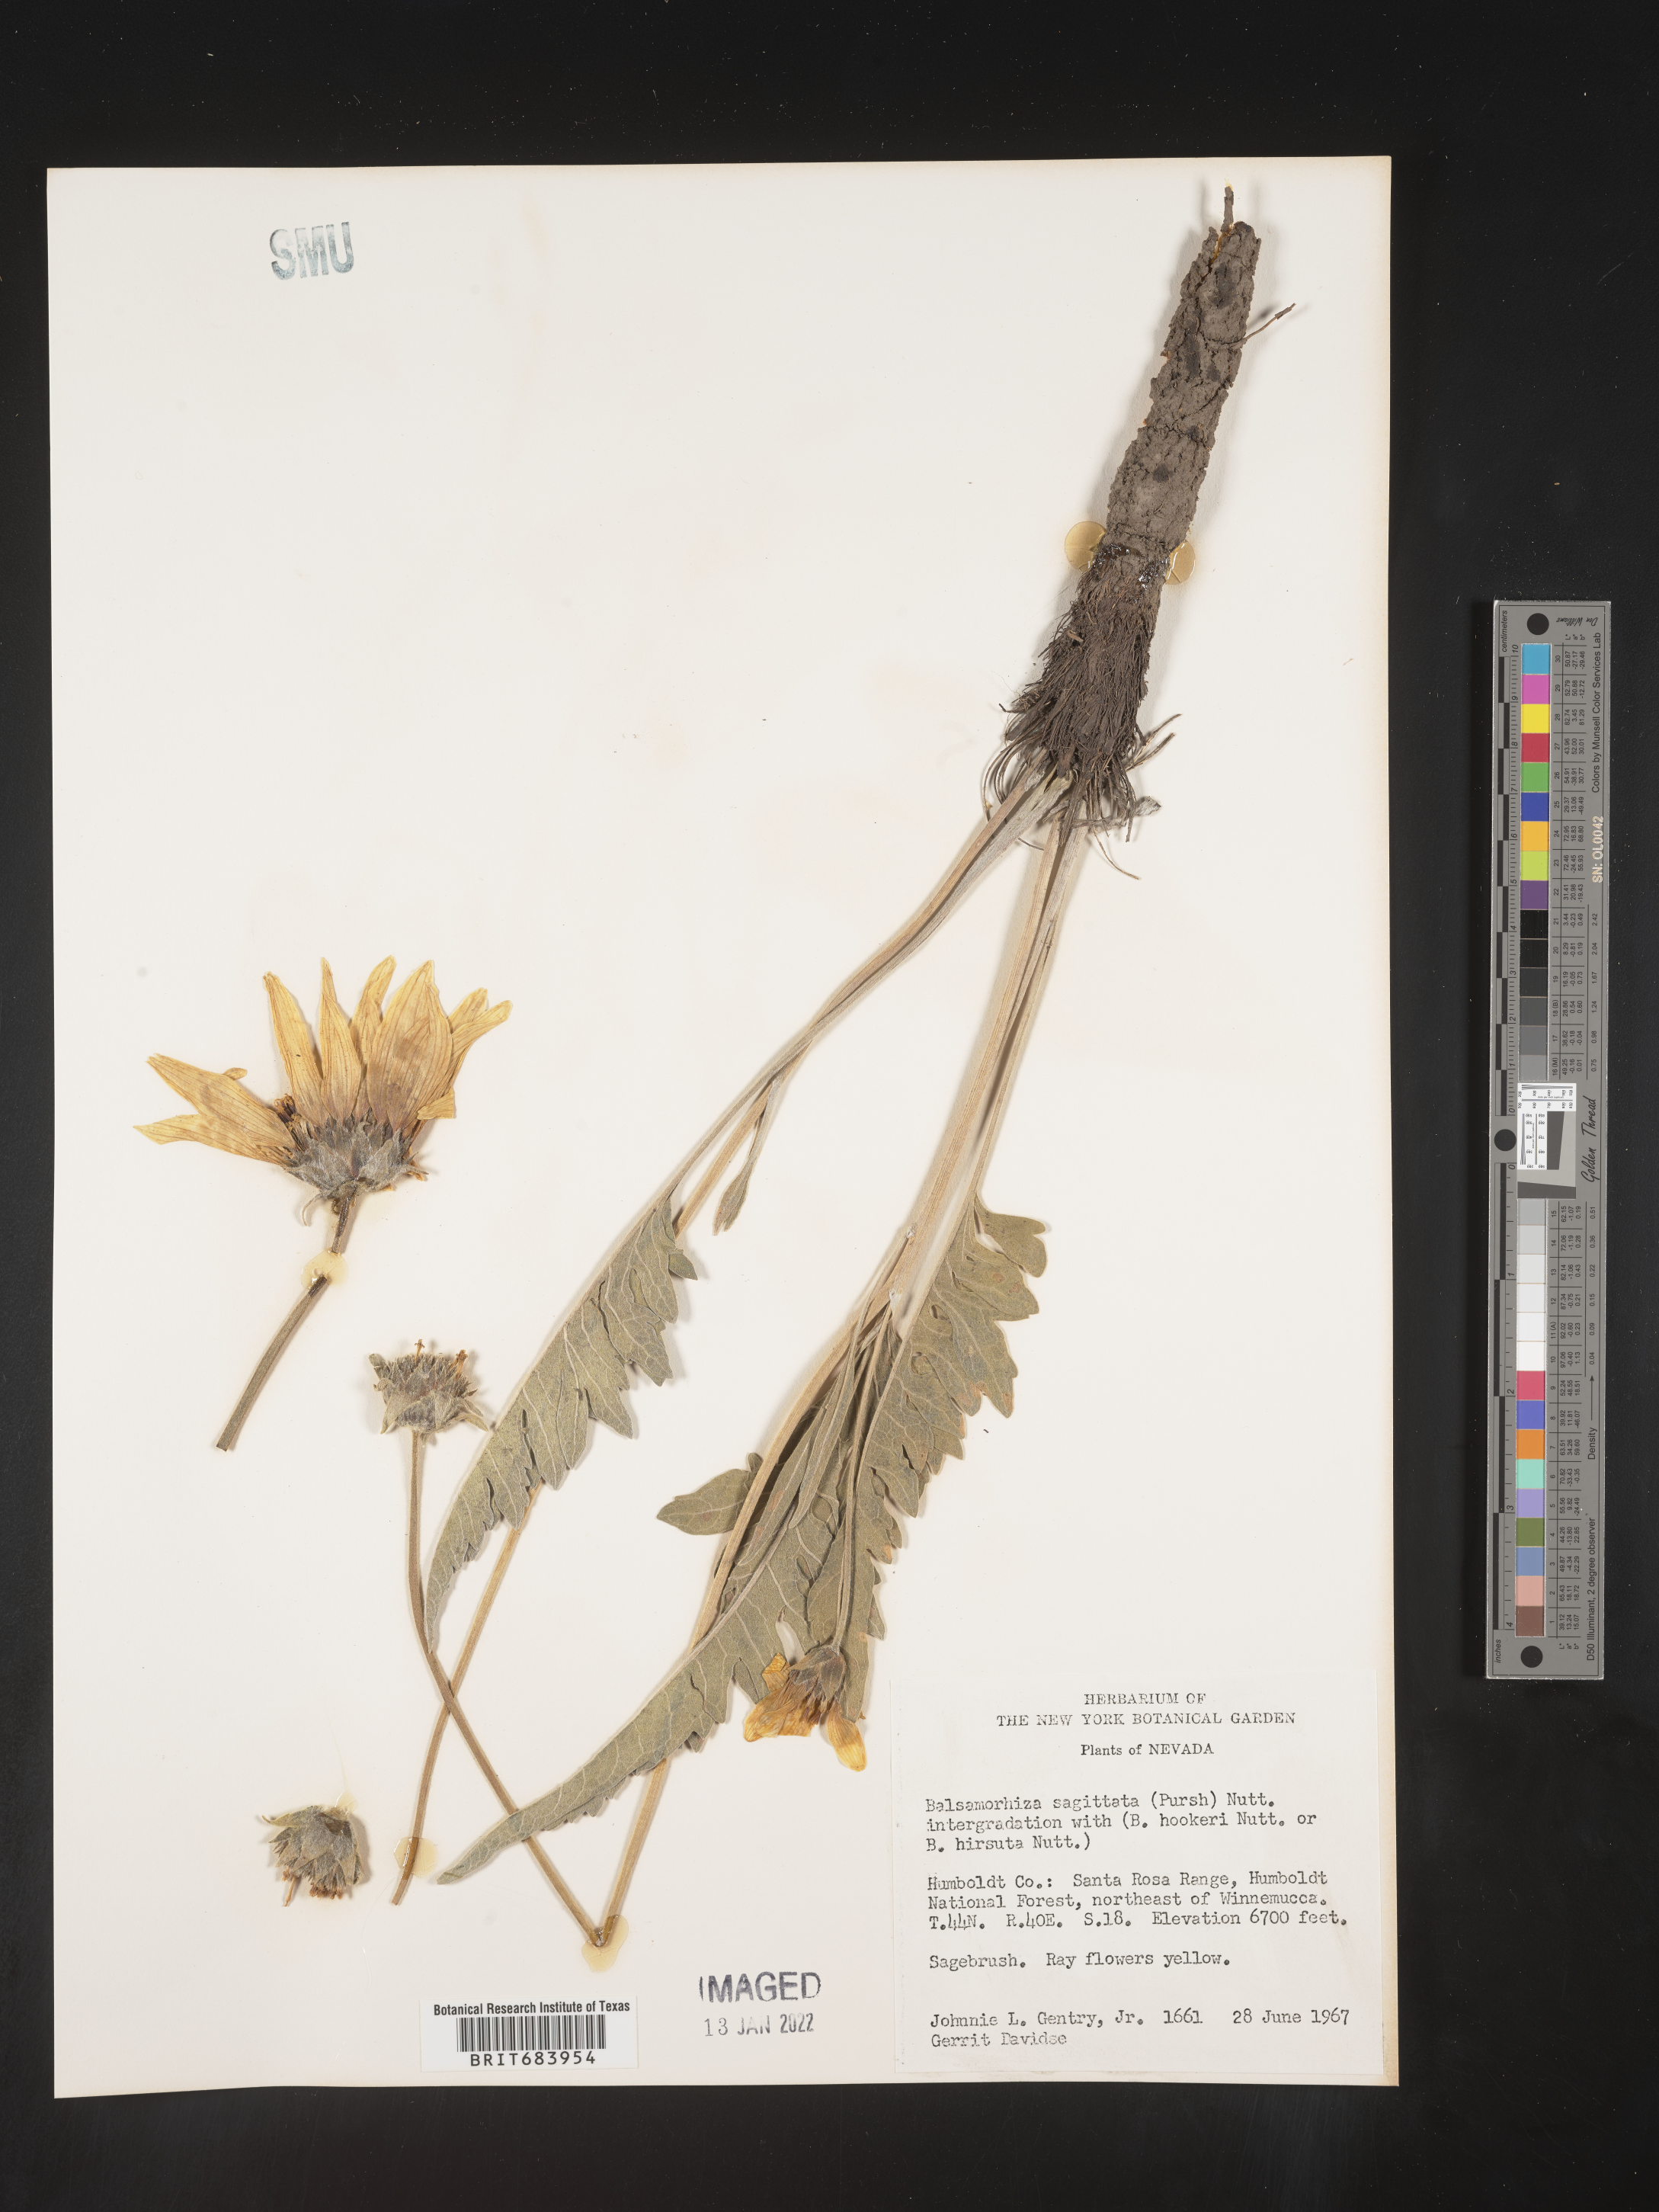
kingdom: Plantae
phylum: Tracheophyta
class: Magnoliopsida
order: Asterales
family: Asteraceae
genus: Wyethia
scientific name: Wyethia sagittata
